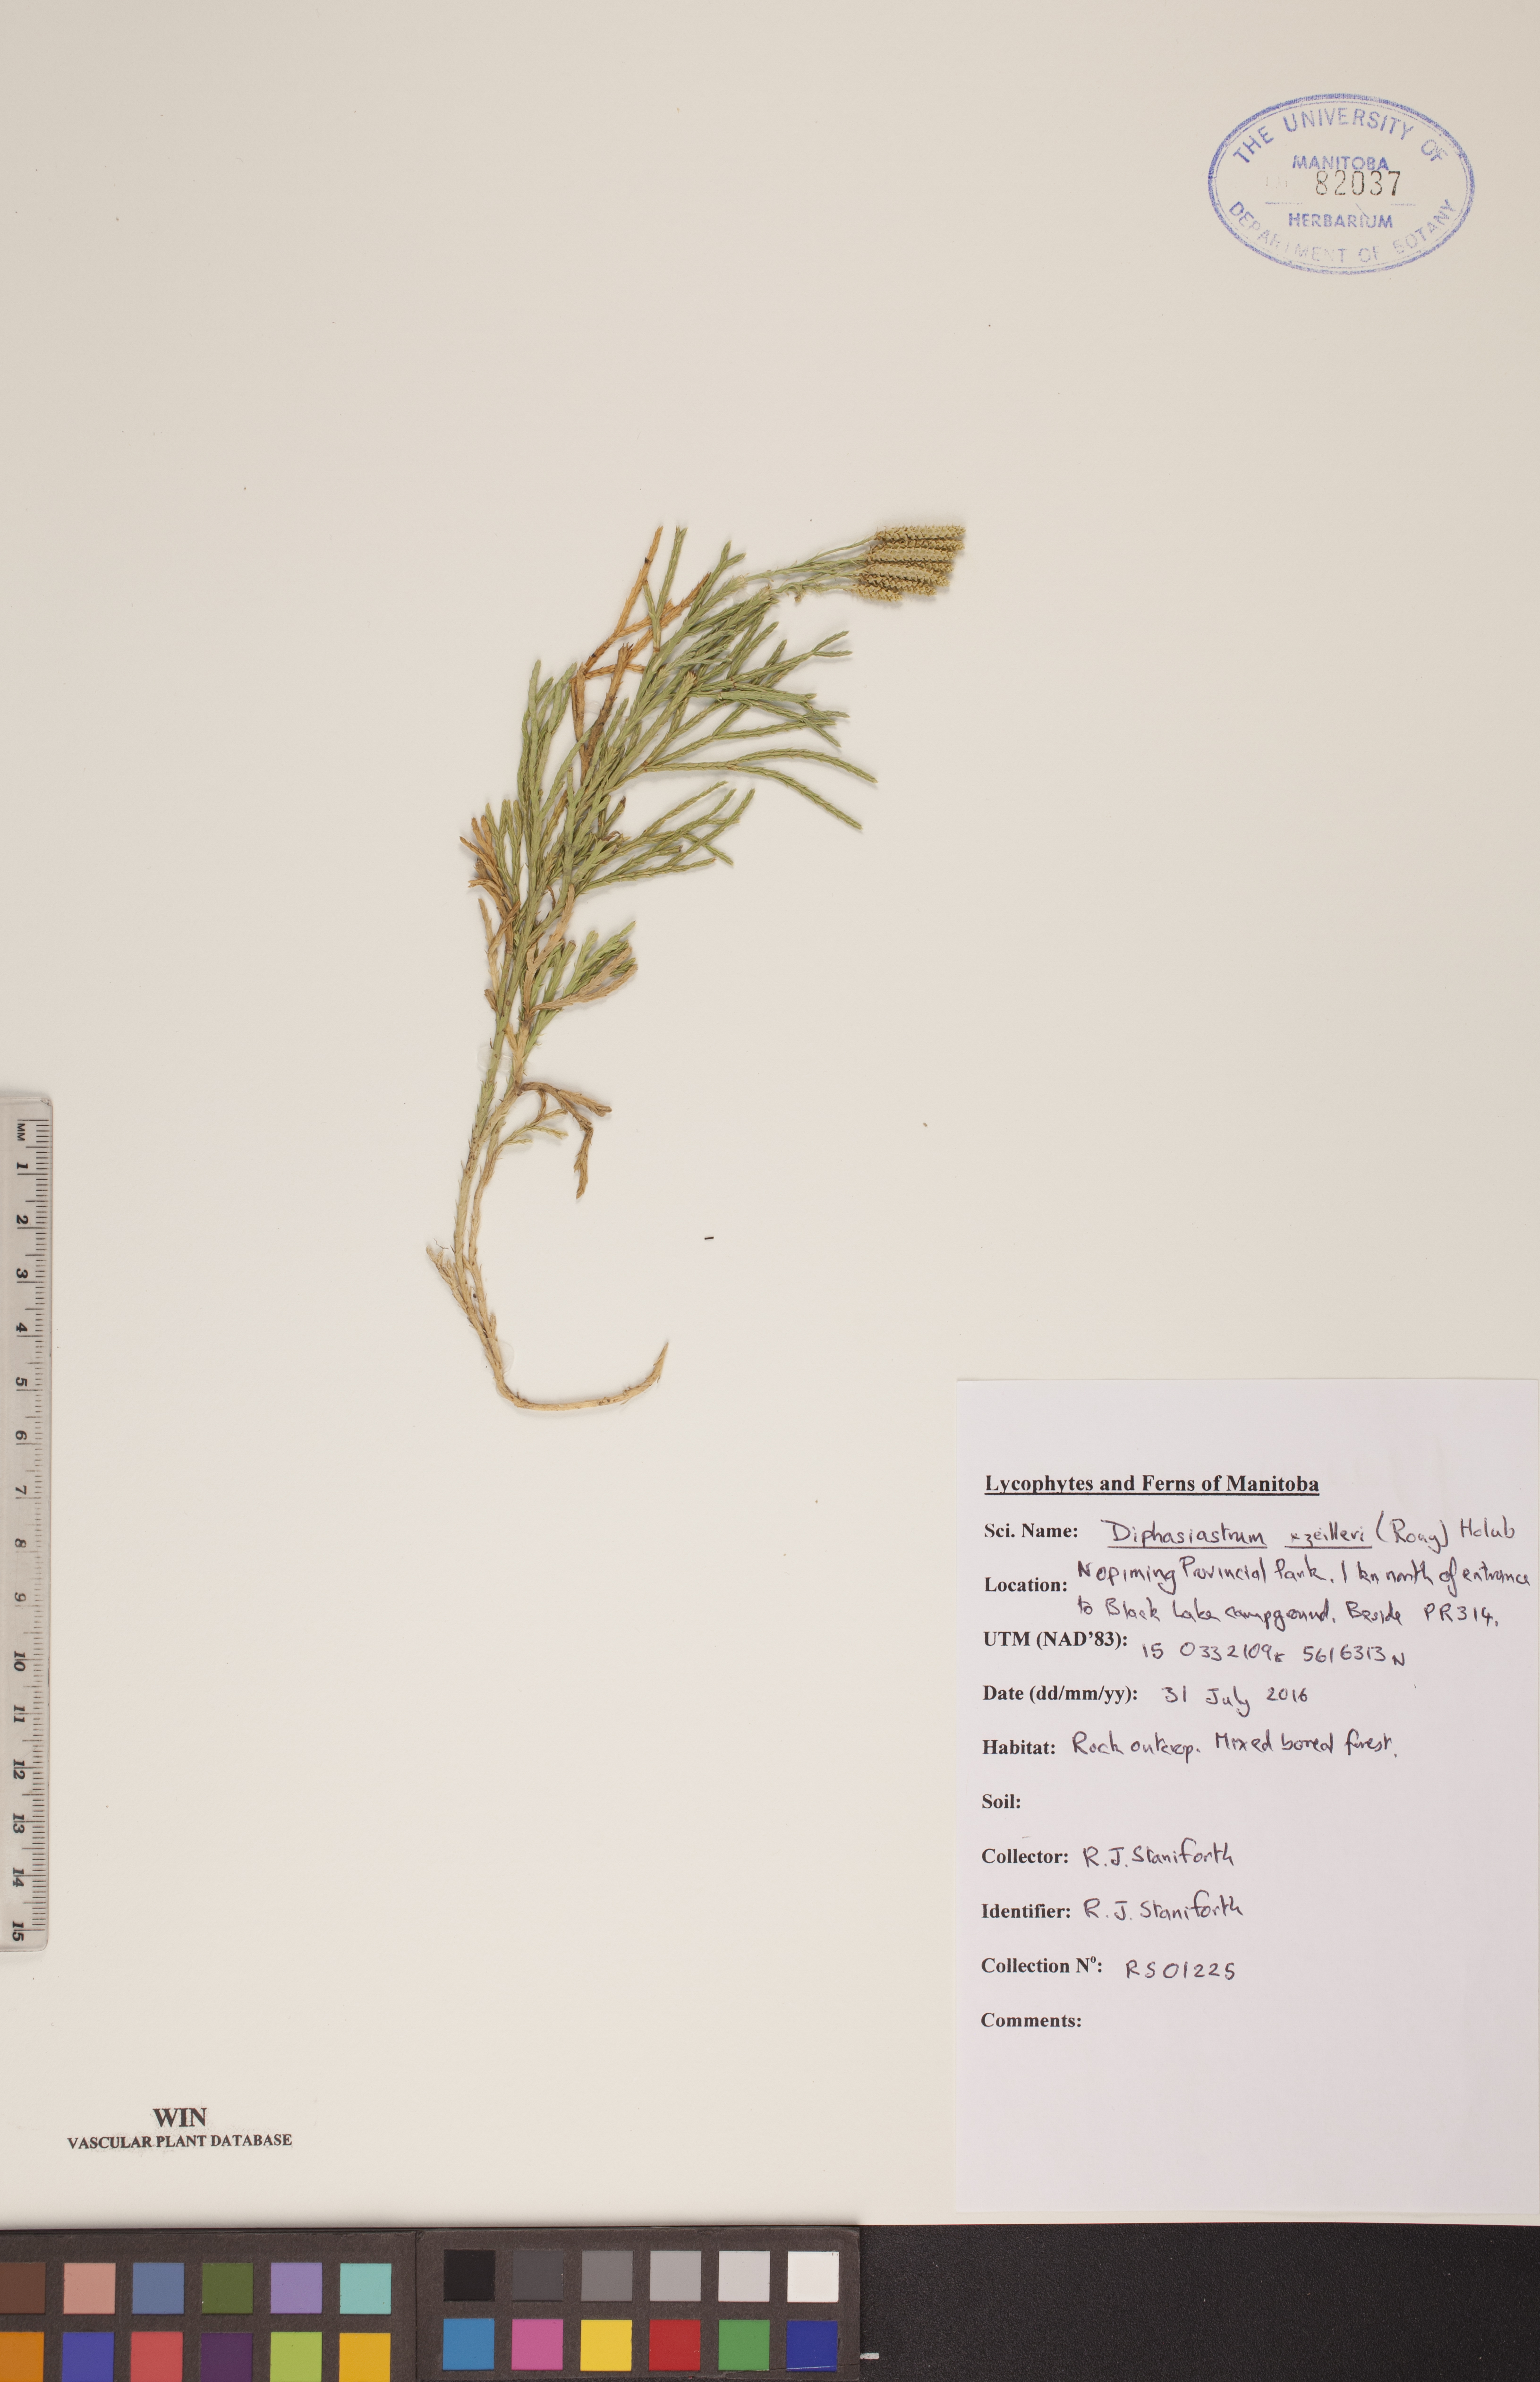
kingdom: Plantae
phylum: Tracheophyta
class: Lycopodiopsida
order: Lycopodiales
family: Lycopodiaceae
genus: Diphasiastrum
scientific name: Diphasiastrum zeilleri
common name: Zeiller's clubmoss
